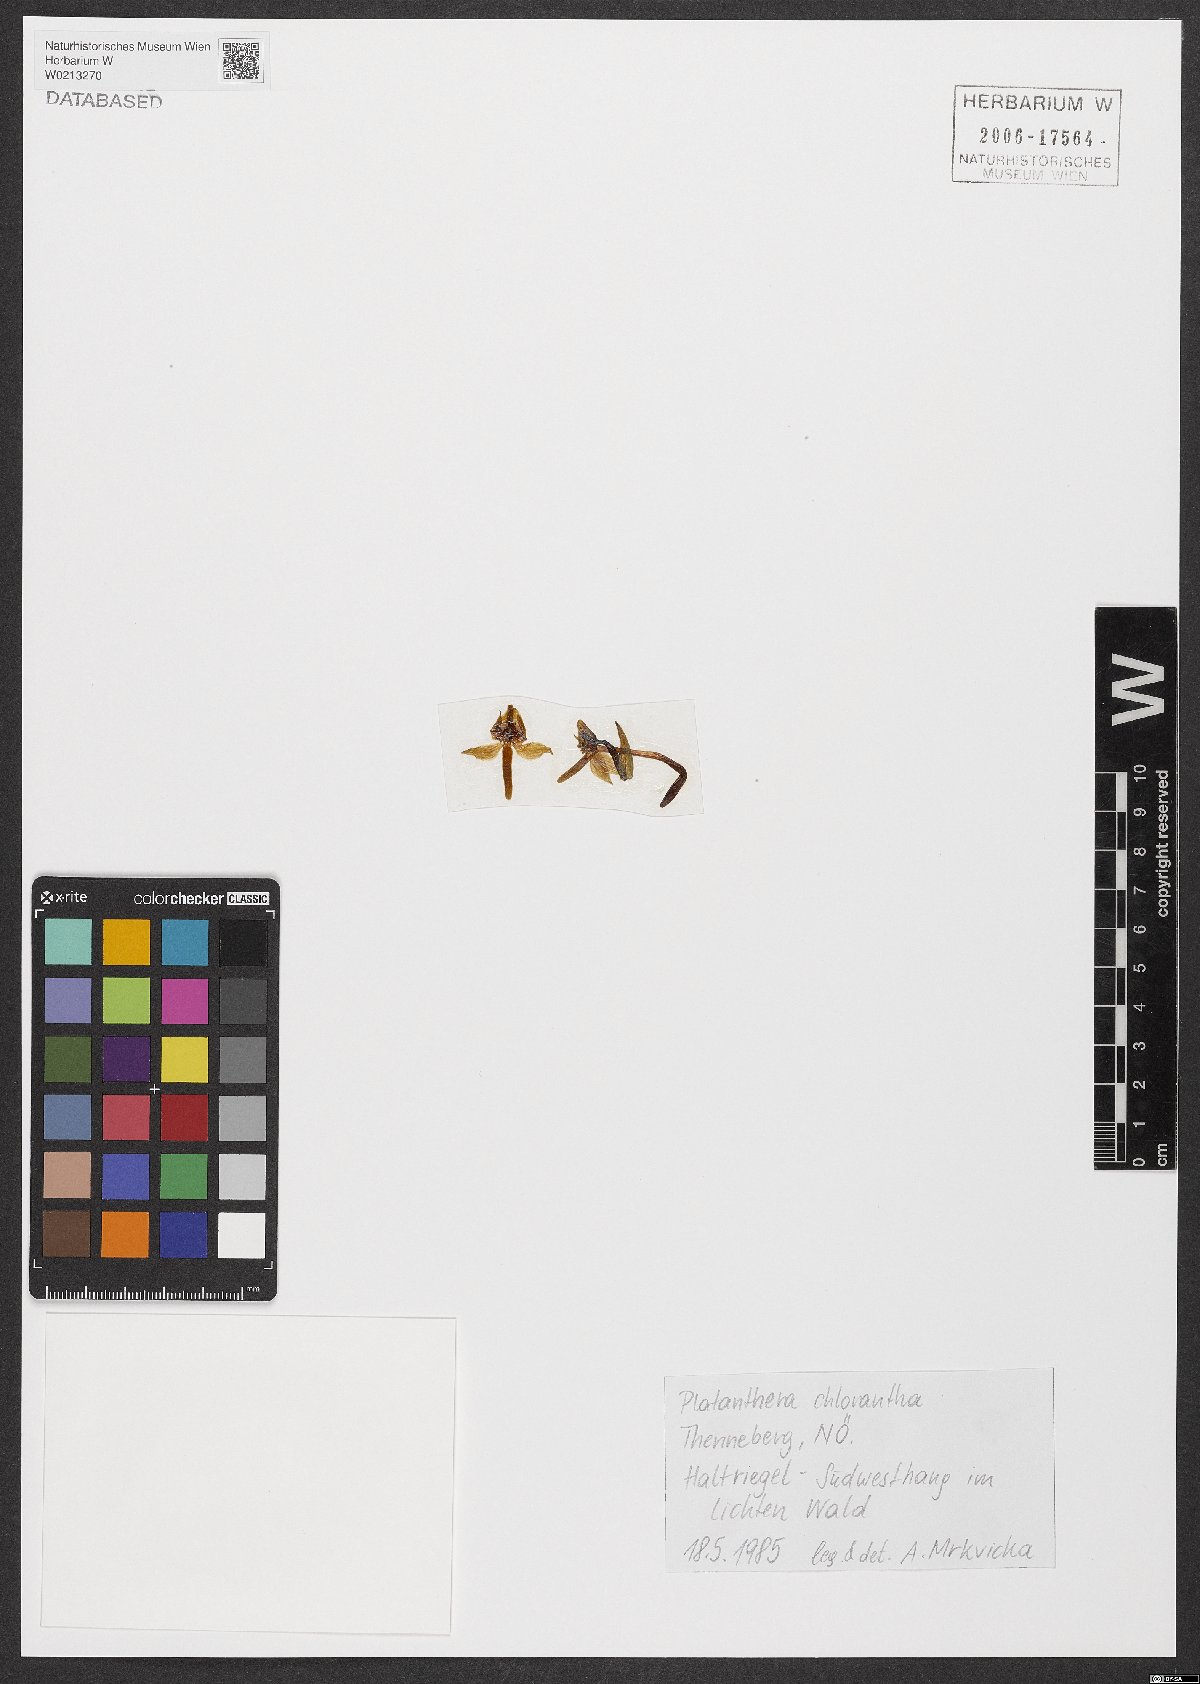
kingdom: Plantae
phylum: Tracheophyta
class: Liliopsida
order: Asparagales
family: Orchidaceae
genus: Platanthera
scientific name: Platanthera chlorantha
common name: Greater butterfly-orchid
